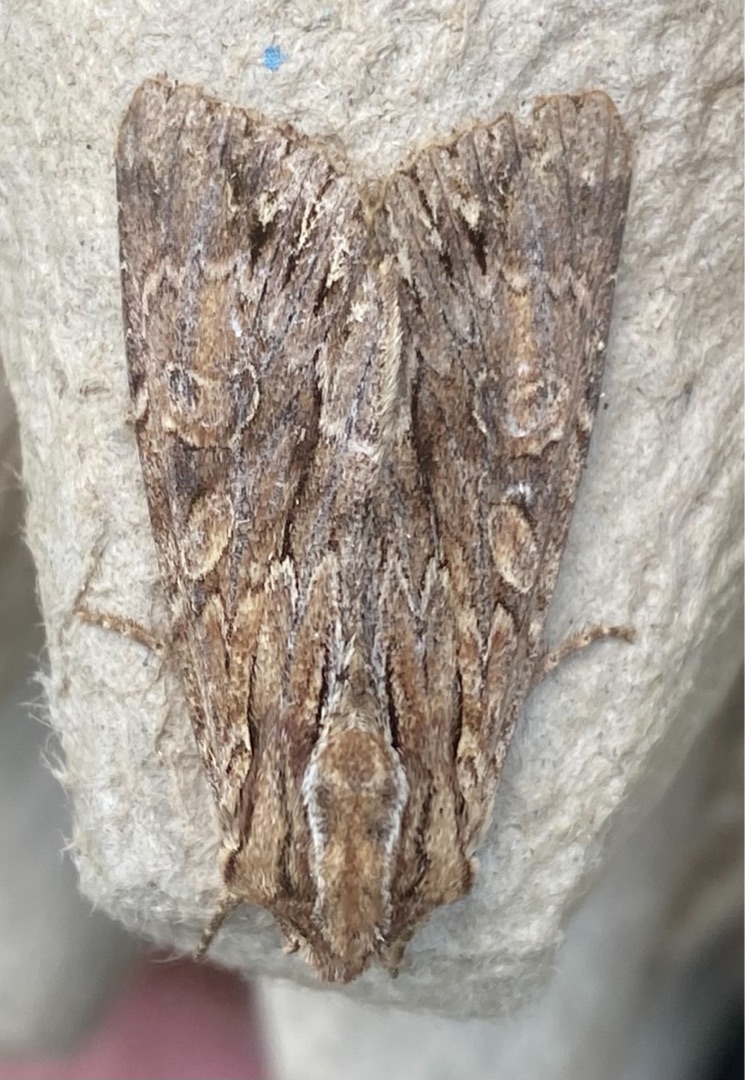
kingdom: Animalia
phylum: Arthropoda
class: Insecta
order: Lepidoptera
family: Noctuidae
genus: Apamea
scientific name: Apamea monoglypha
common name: Jordugle
